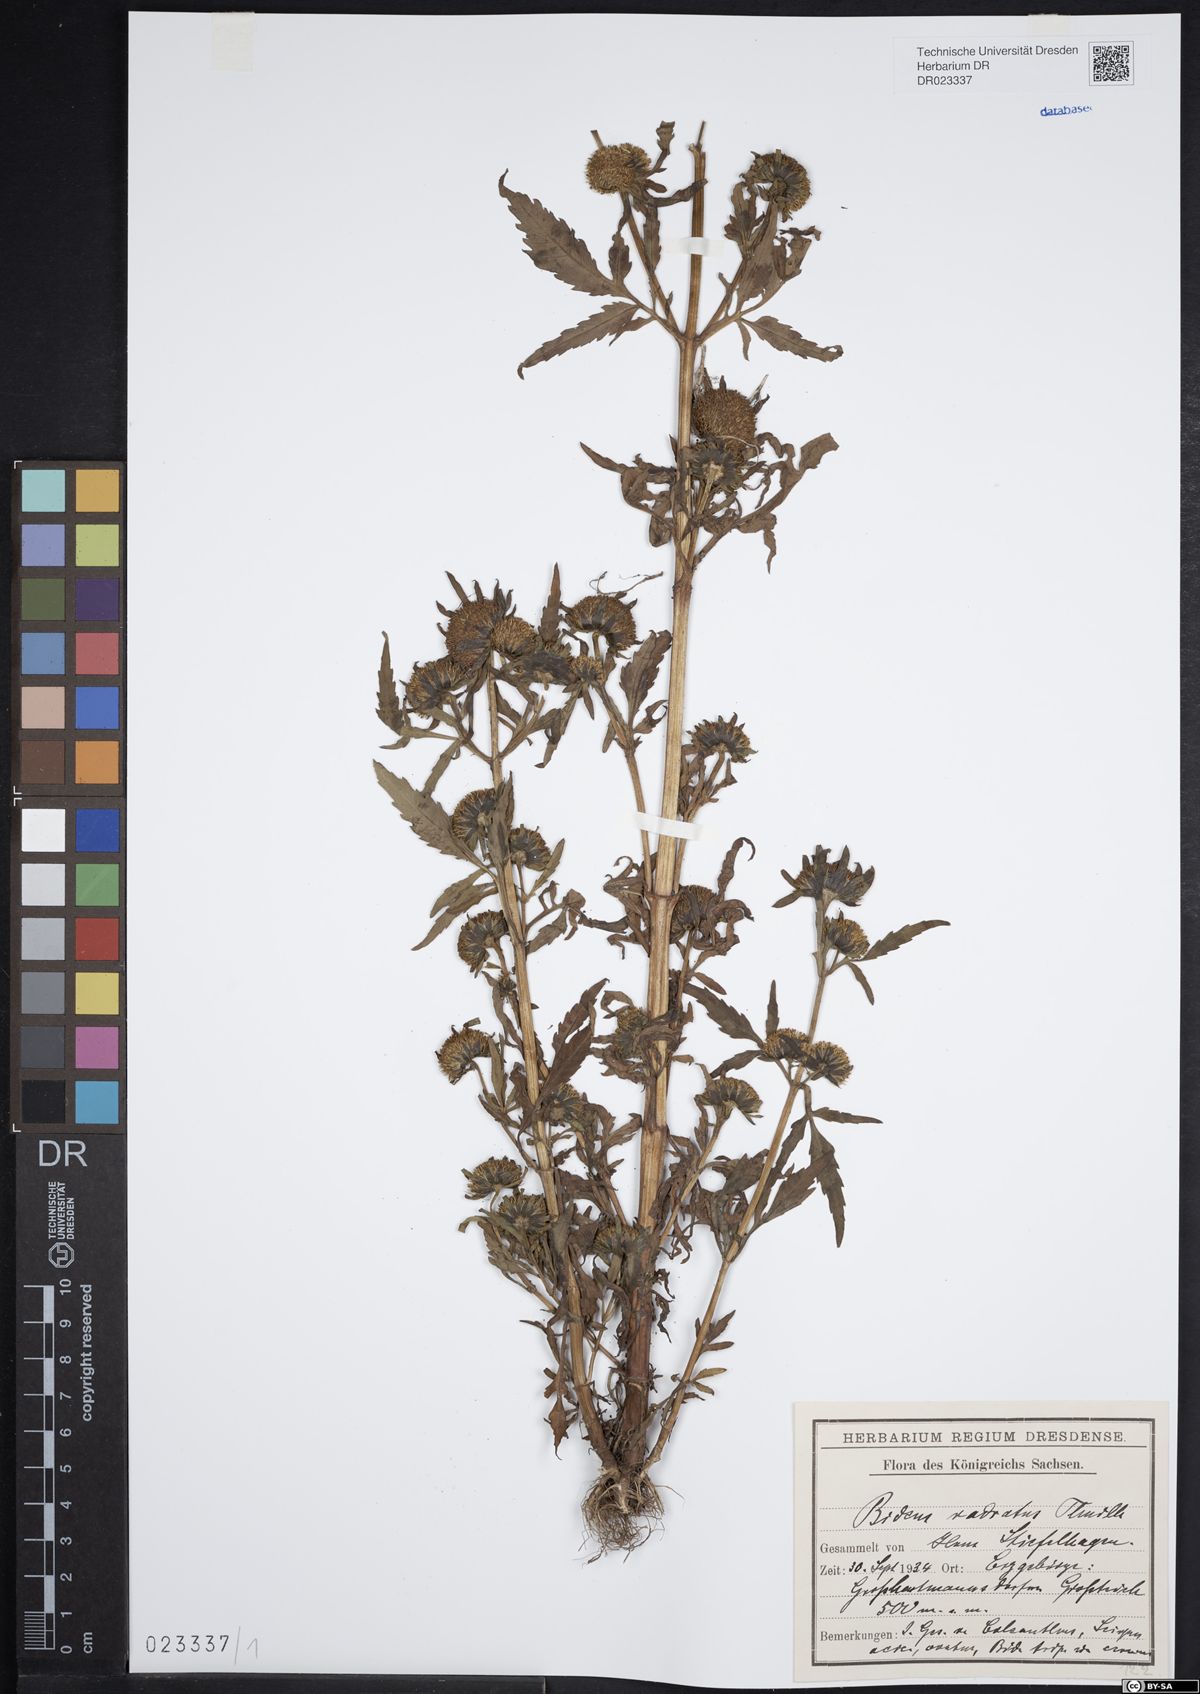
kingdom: Plantae
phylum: Tracheophyta
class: Magnoliopsida
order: Asterales
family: Asteraceae
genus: Bidens
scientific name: Bidens radiata
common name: Radiating bur-marigold
